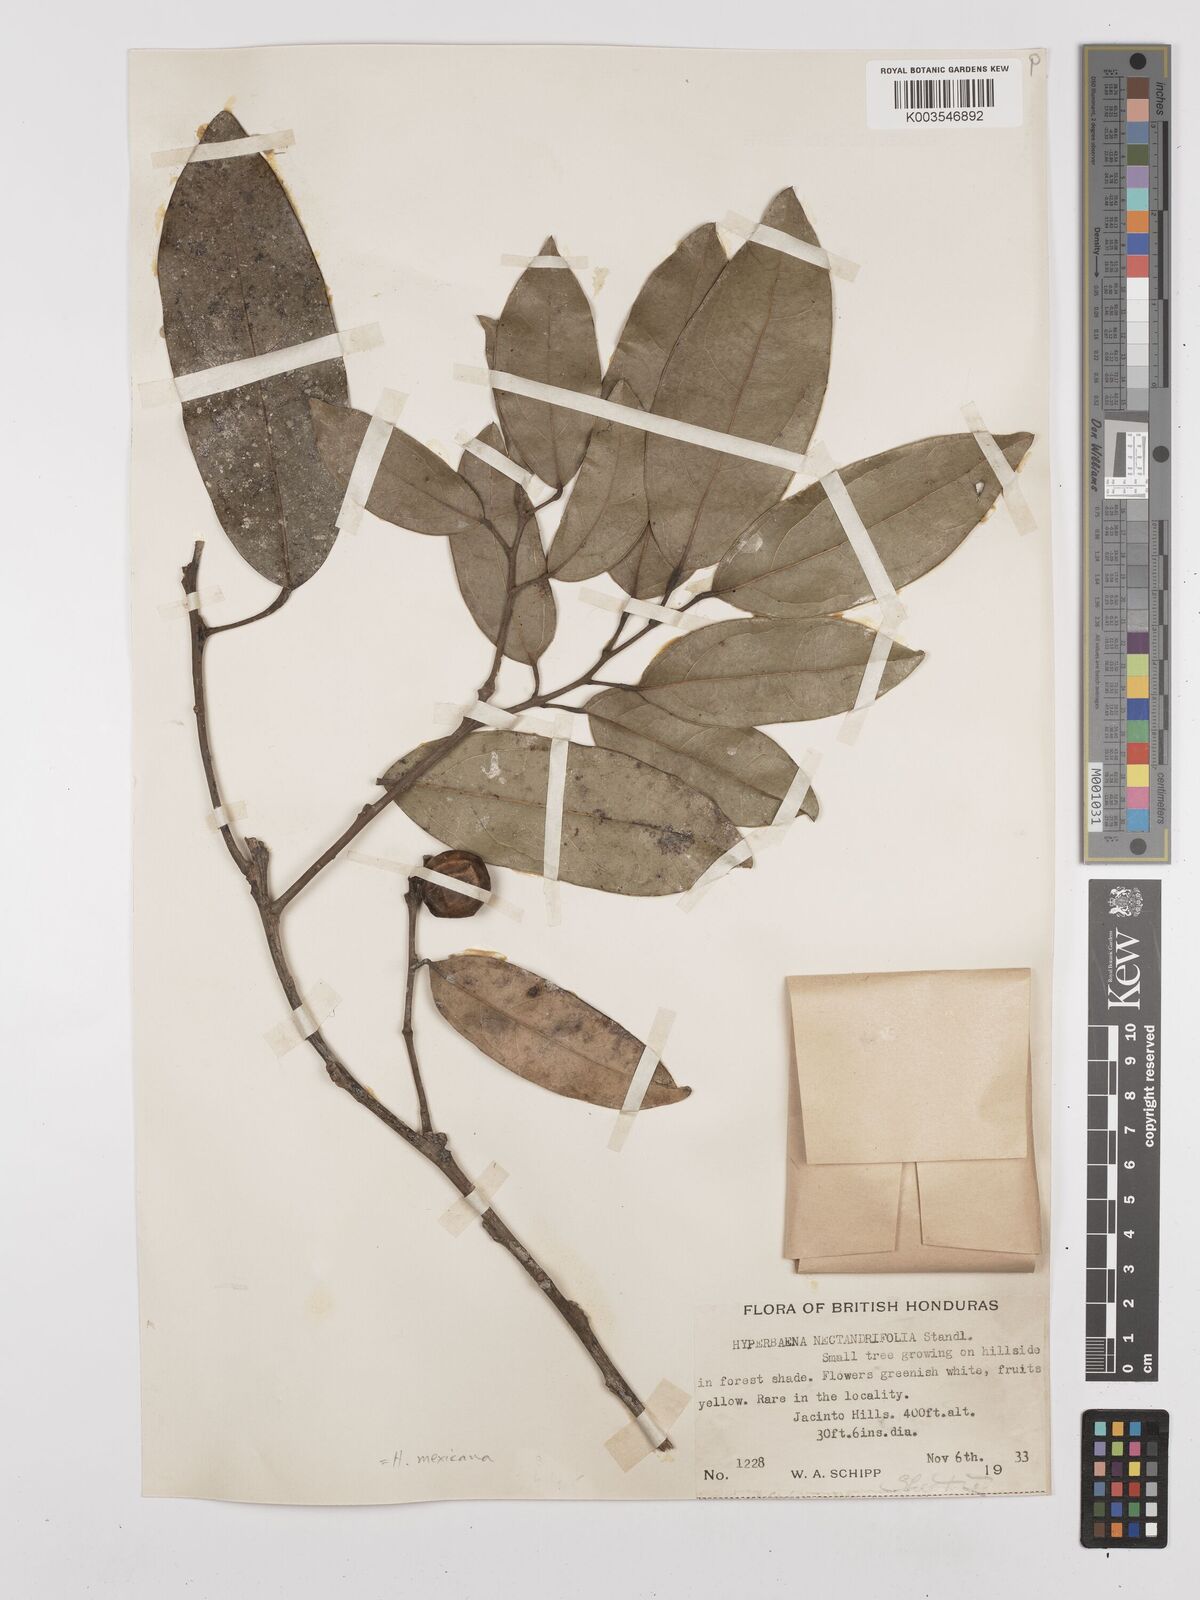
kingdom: Plantae
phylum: Tracheophyta
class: Magnoliopsida
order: Ranunculales
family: Menispermaceae
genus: Hyperbaena
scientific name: Hyperbaena mexicana
